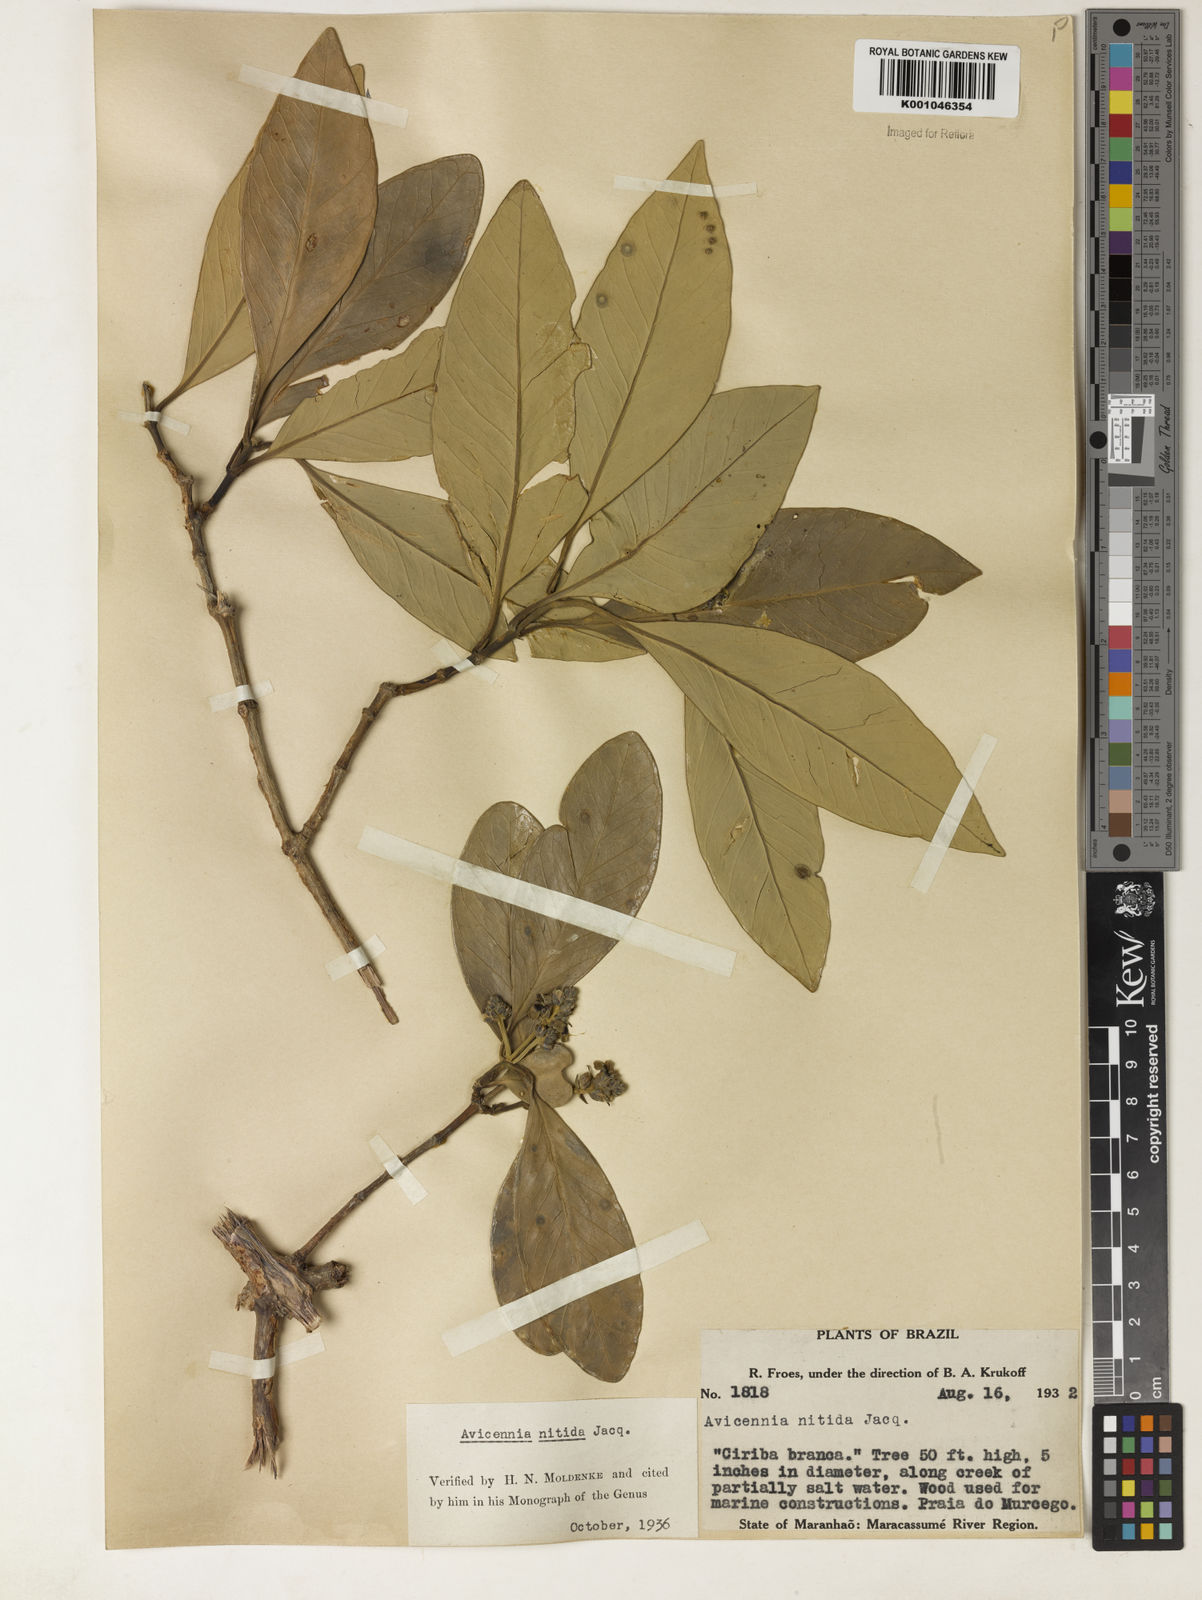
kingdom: Plantae
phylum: Tracheophyta
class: Magnoliopsida
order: Lamiales
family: Acanthaceae
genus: Avicennia
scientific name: Avicennia germinans
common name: Black mangrove
